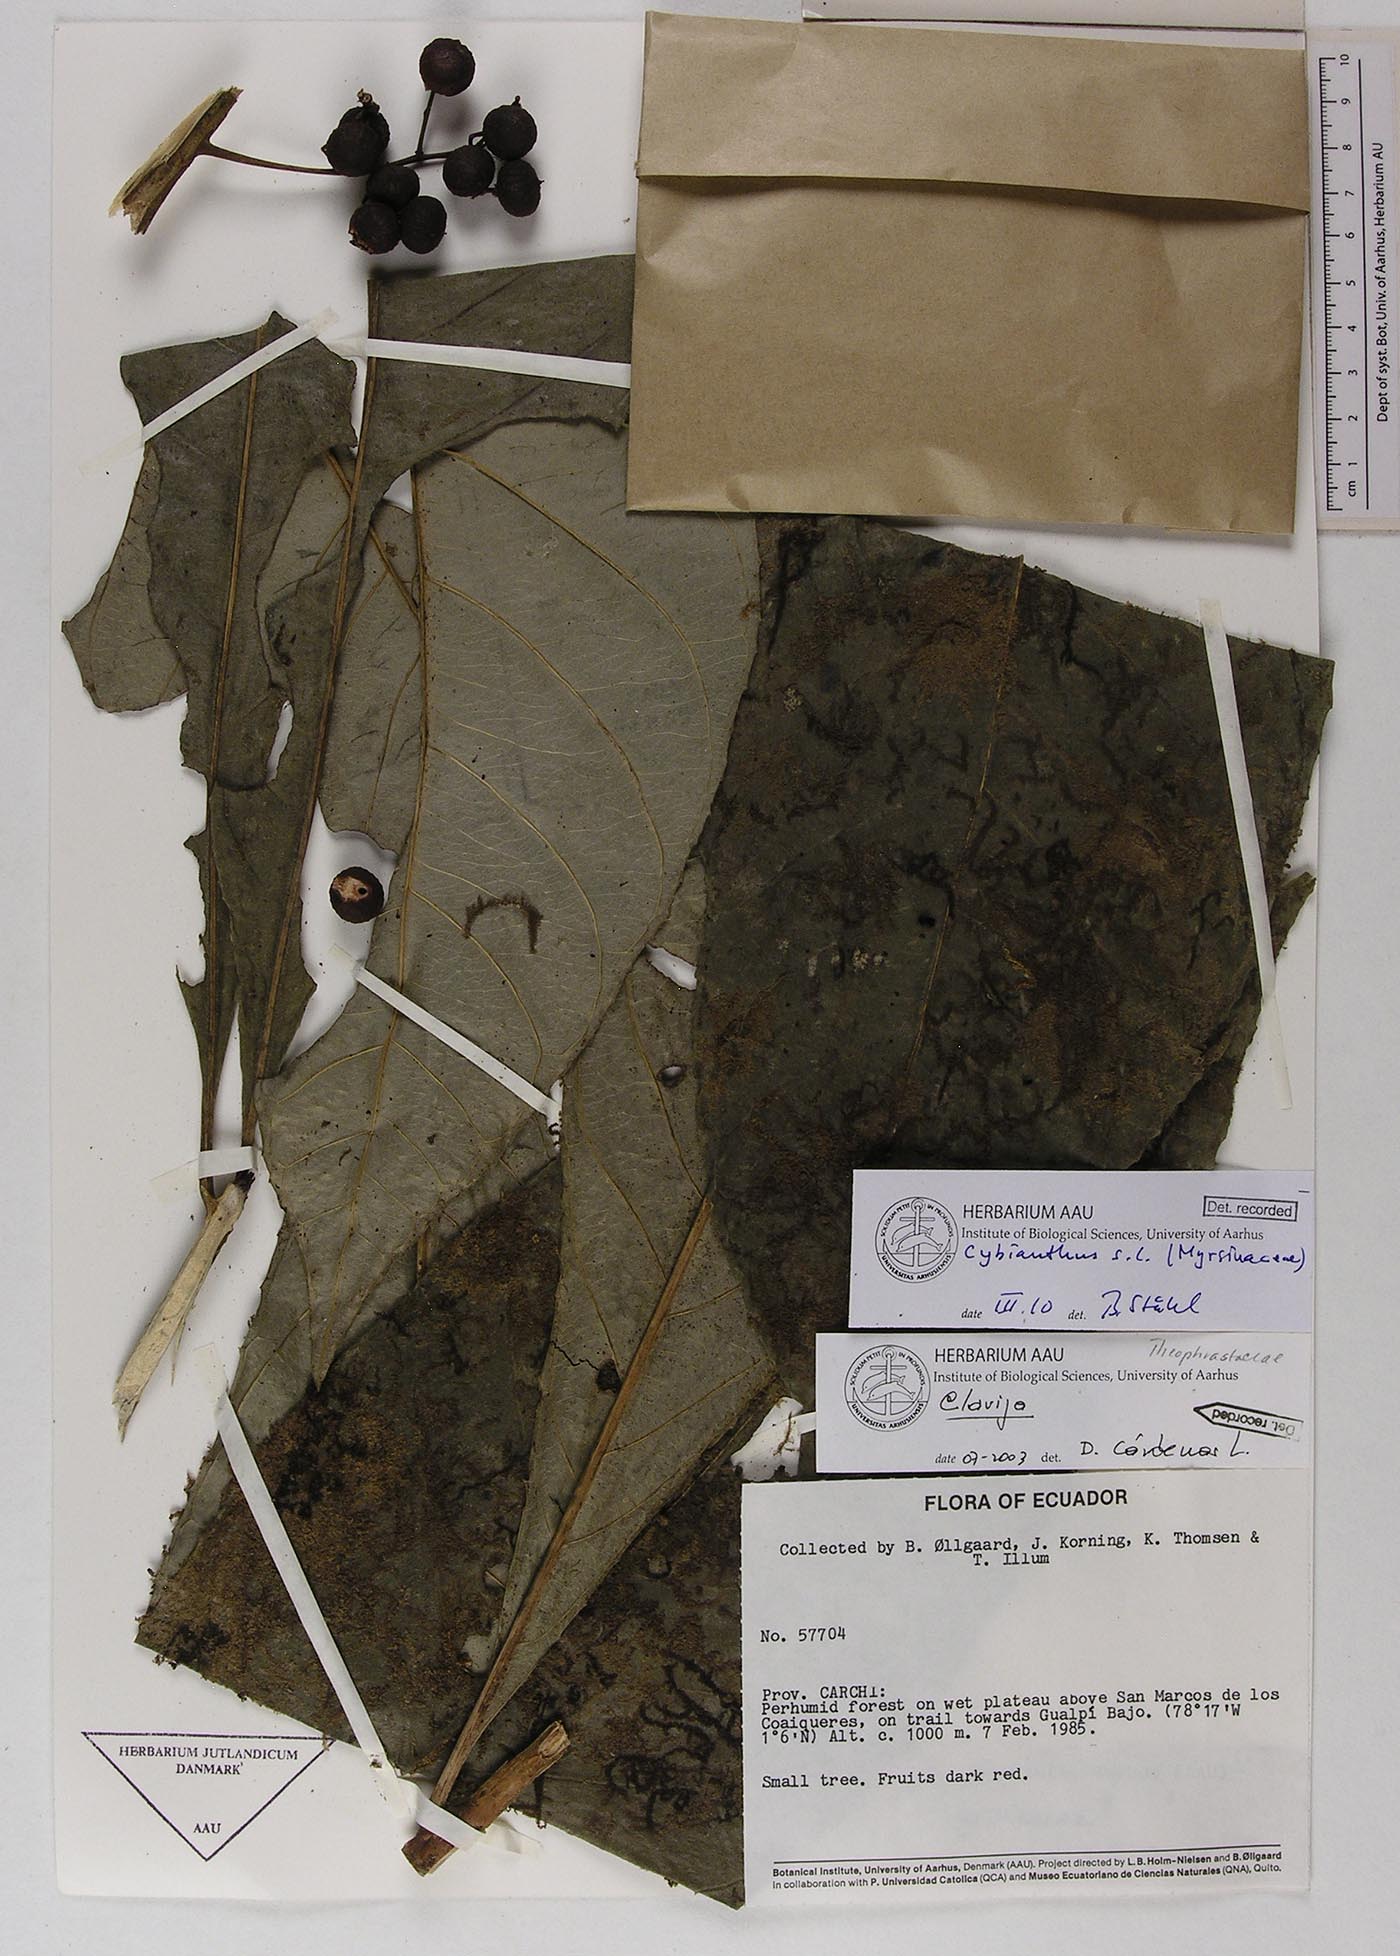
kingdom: Plantae
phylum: Tracheophyta
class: Magnoliopsida
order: Ericales
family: Primulaceae
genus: Cybianthus
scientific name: Cybianthus
